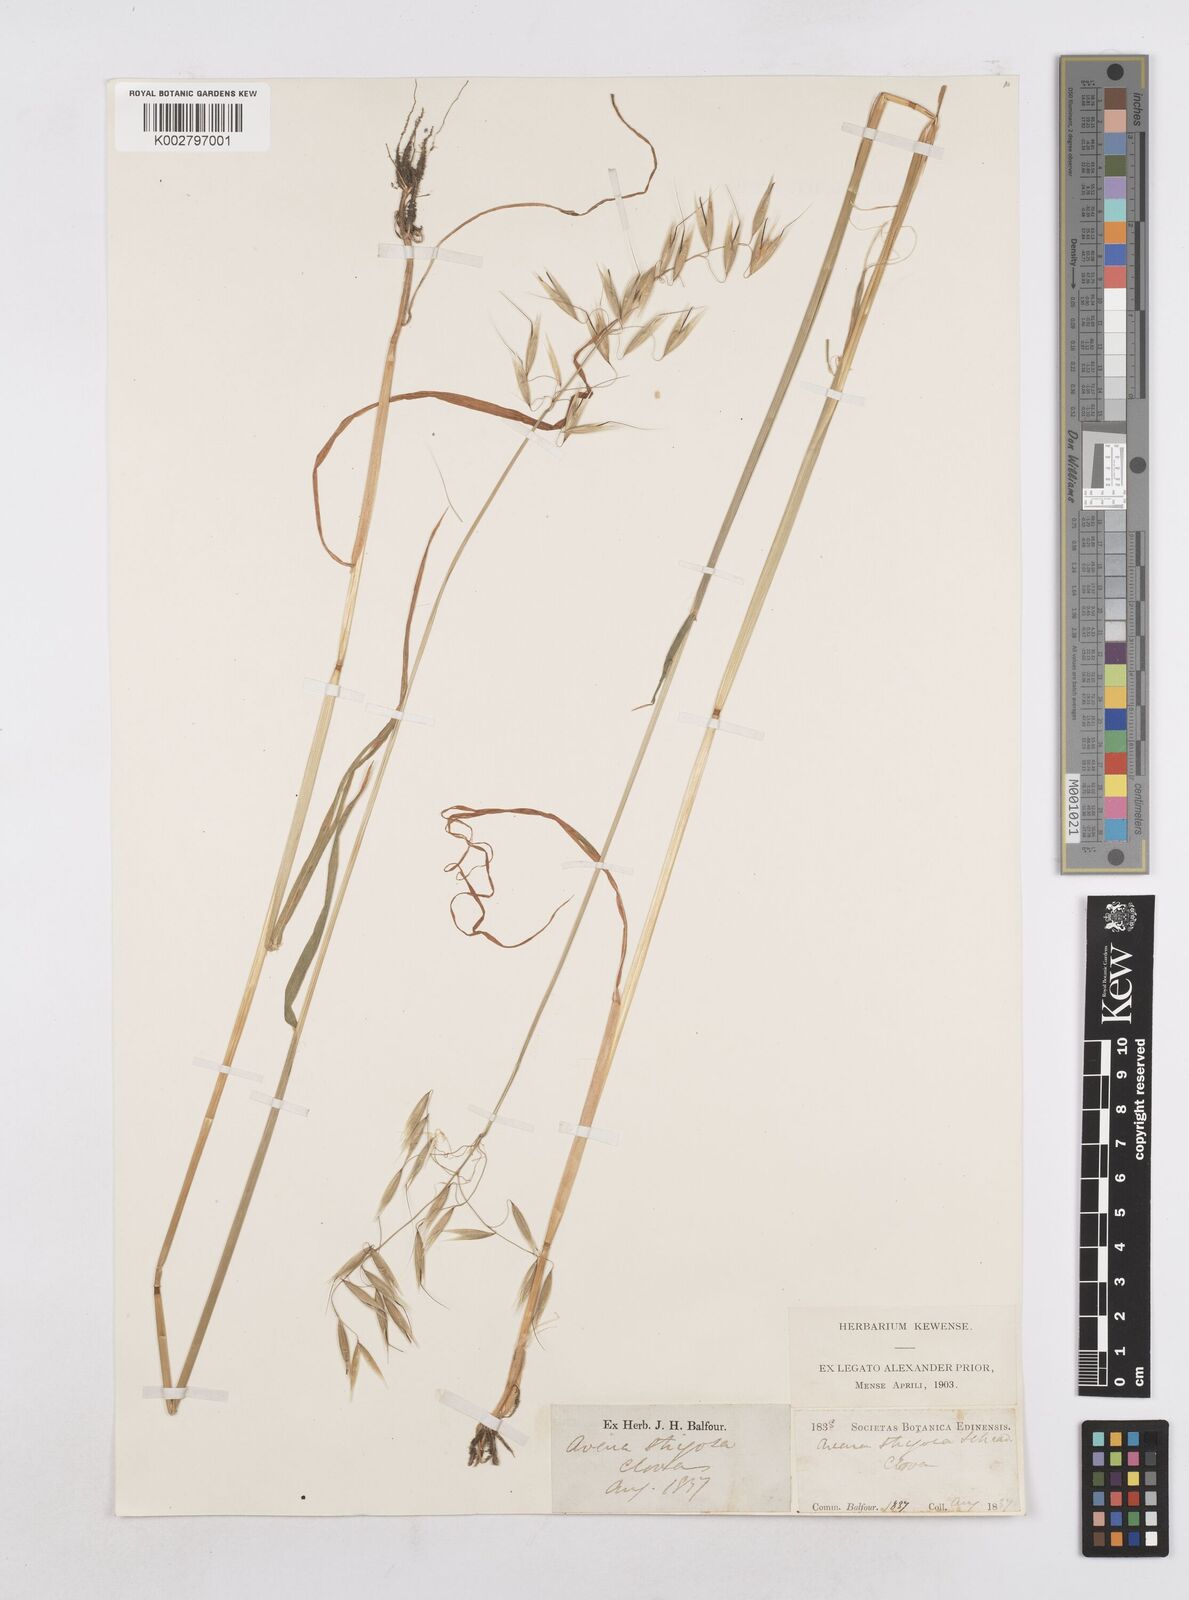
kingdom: Plantae
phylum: Tracheophyta
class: Liliopsida
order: Poales
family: Poaceae
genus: Avena
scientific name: Avena strigosa
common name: Bristle oat
